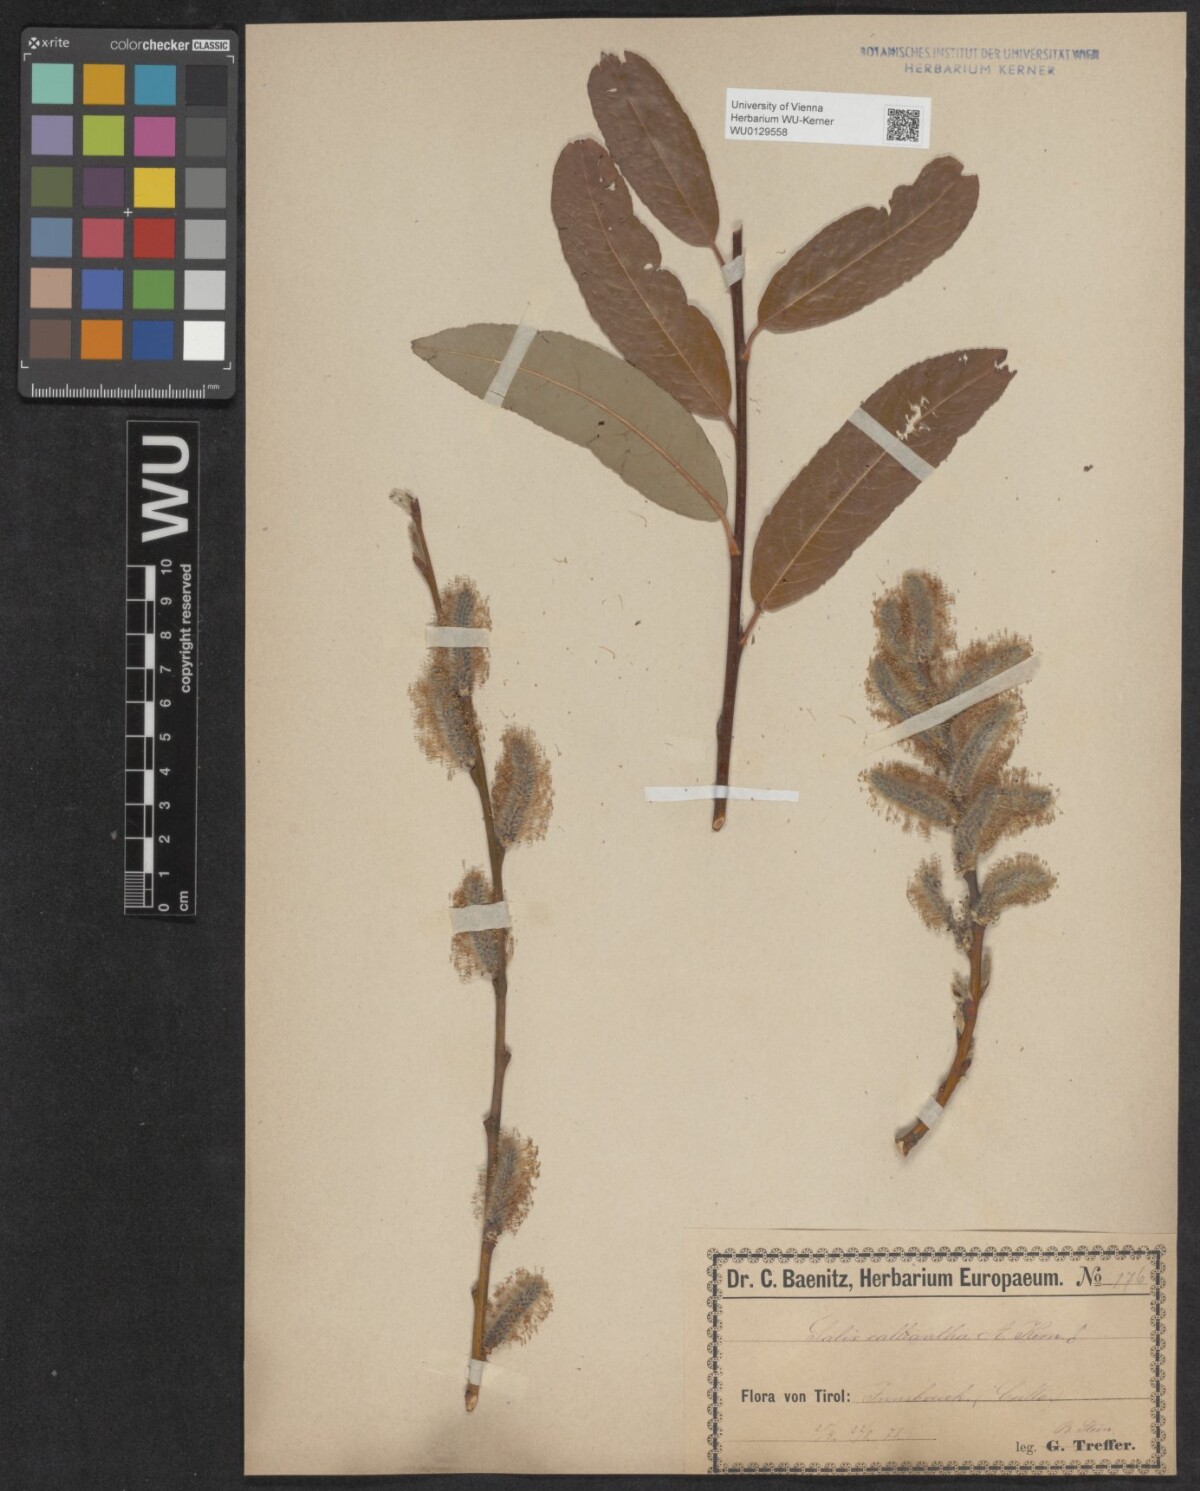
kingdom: Plantae
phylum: Tracheophyta
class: Magnoliopsida
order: Malpighiales
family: Salicaceae
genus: Salix
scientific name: Salix calliantha
